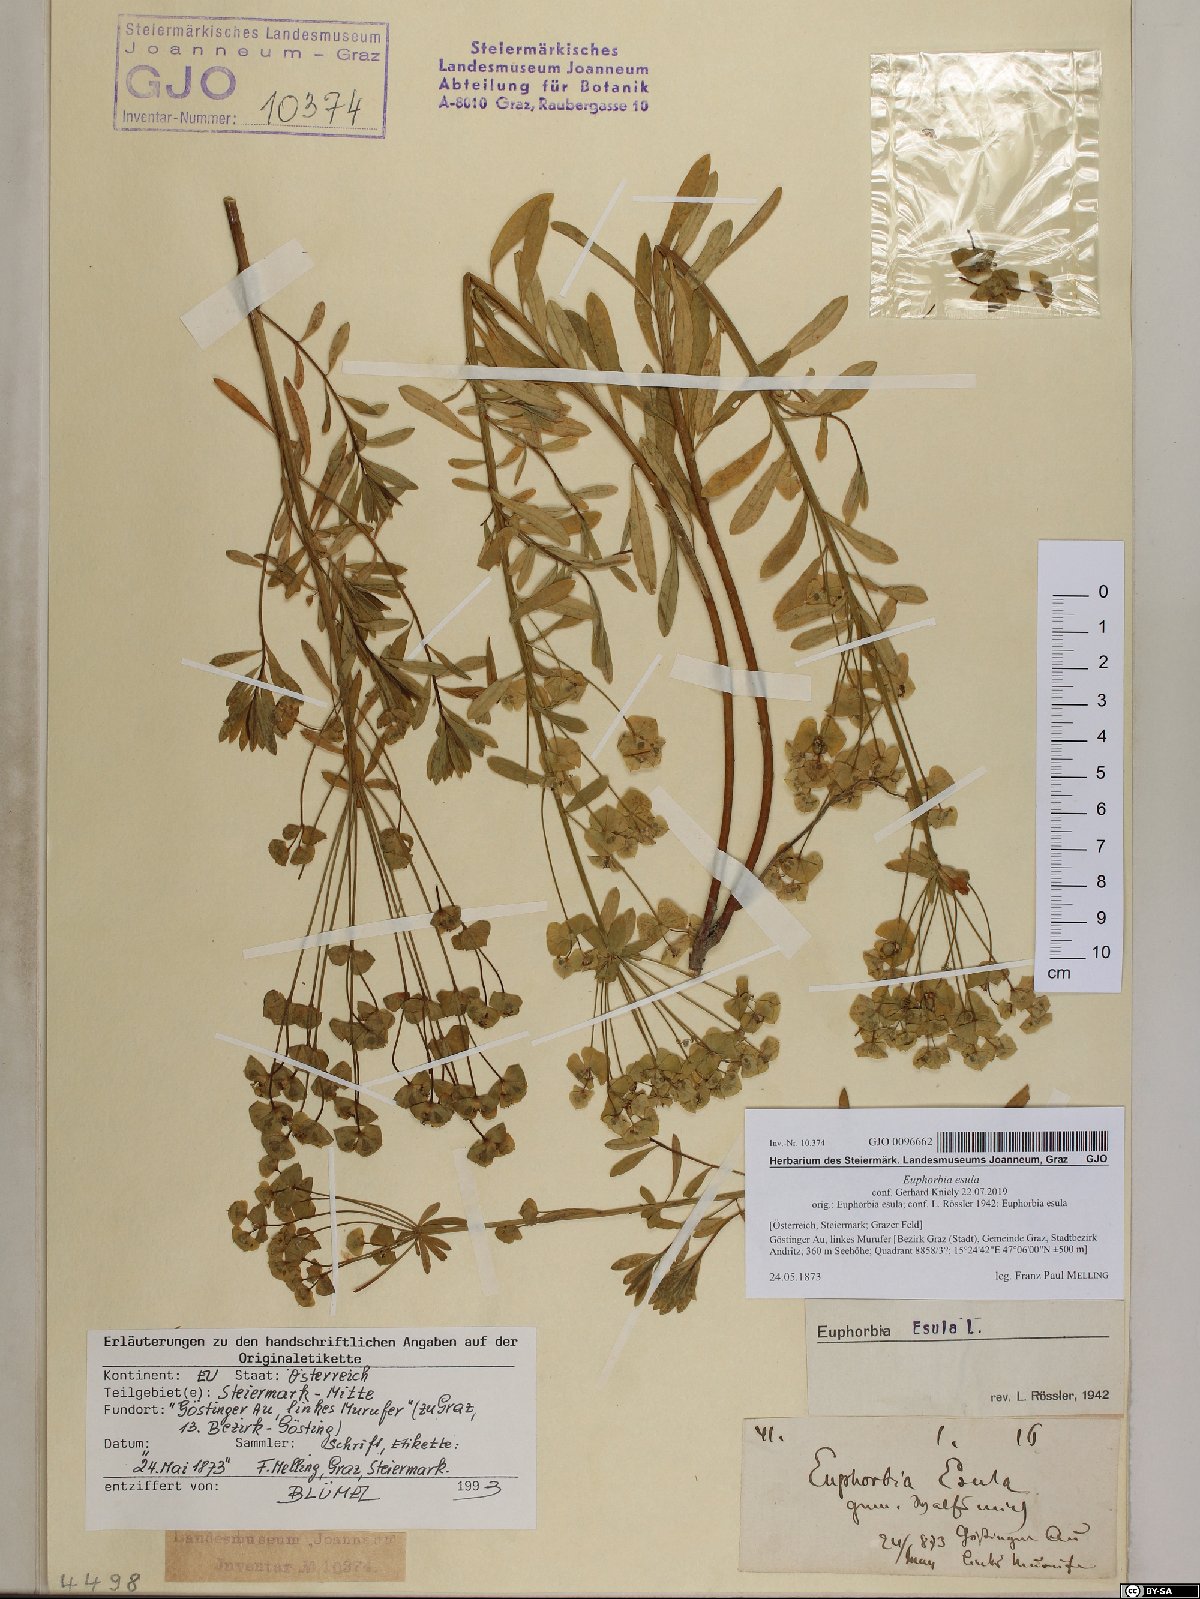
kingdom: Plantae
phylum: Tracheophyta
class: Magnoliopsida
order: Malpighiales
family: Euphorbiaceae
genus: Euphorbia
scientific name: Euphorbia esula
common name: Leafy spurge
